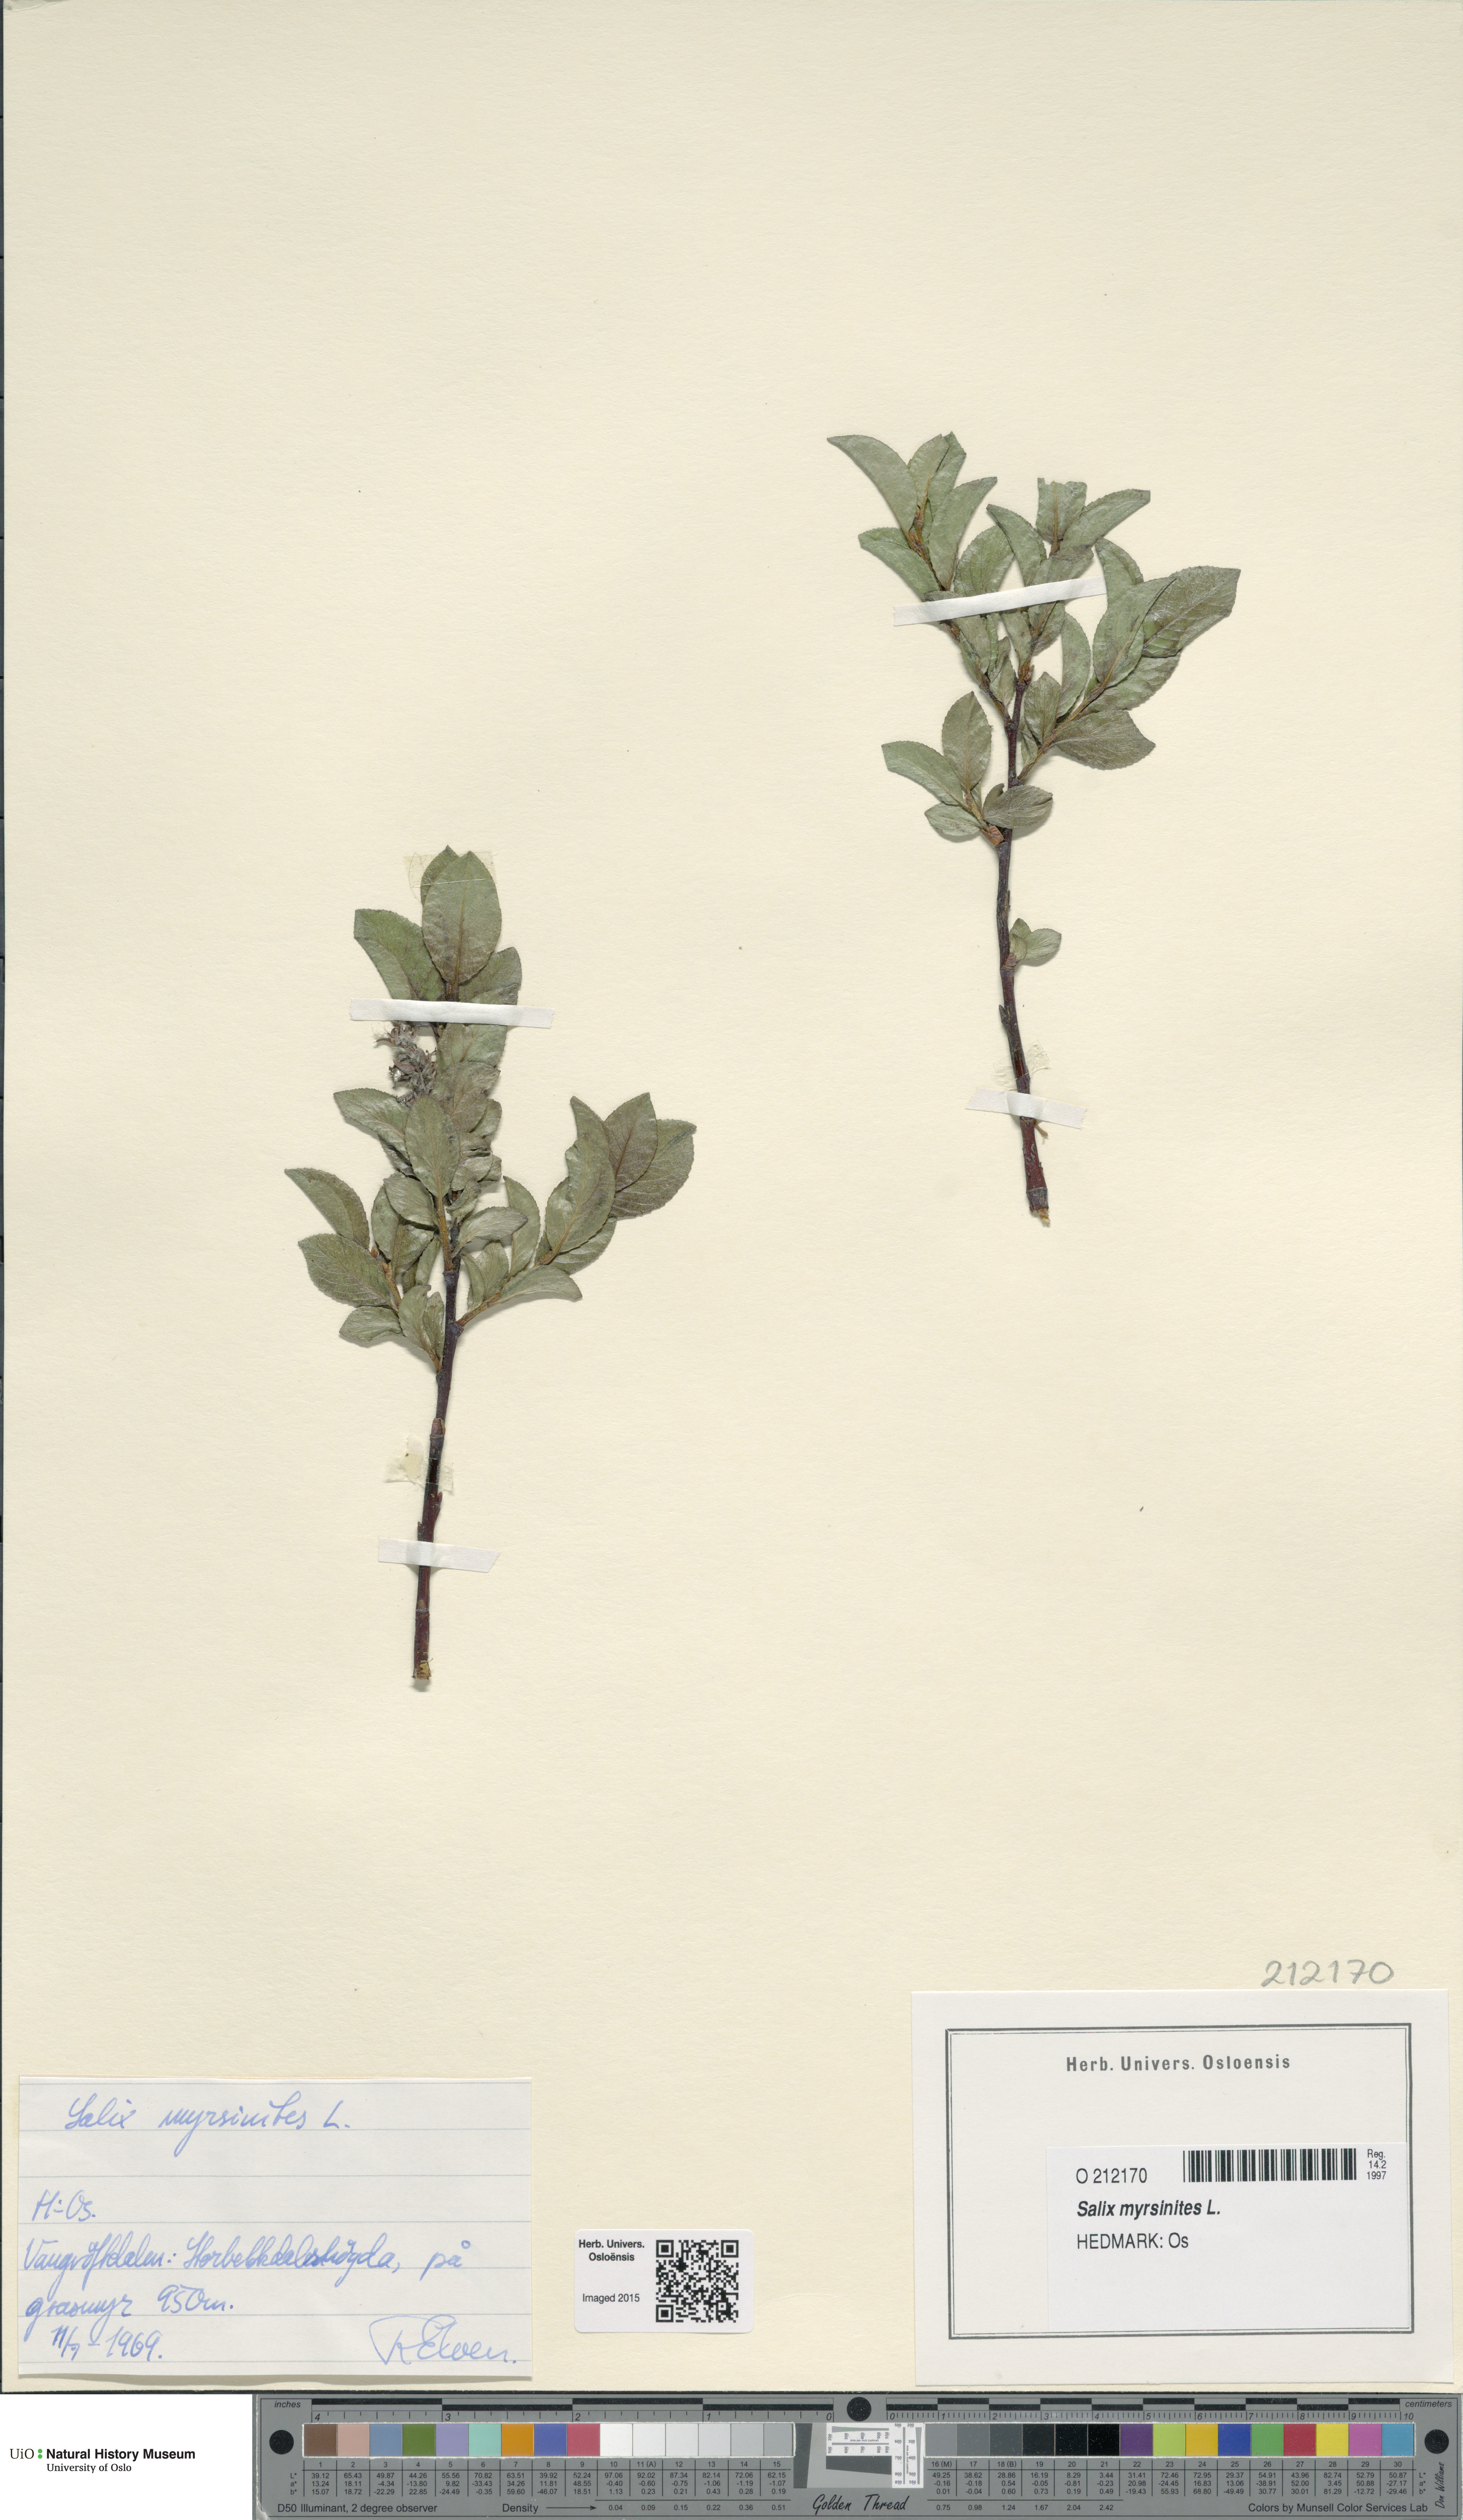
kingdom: Plantae
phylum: Tracheophyta
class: Magnoliopsida
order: Malpighiales
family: Salicaceae
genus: Salix
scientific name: Salix myrsinites
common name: Myrtle willow
